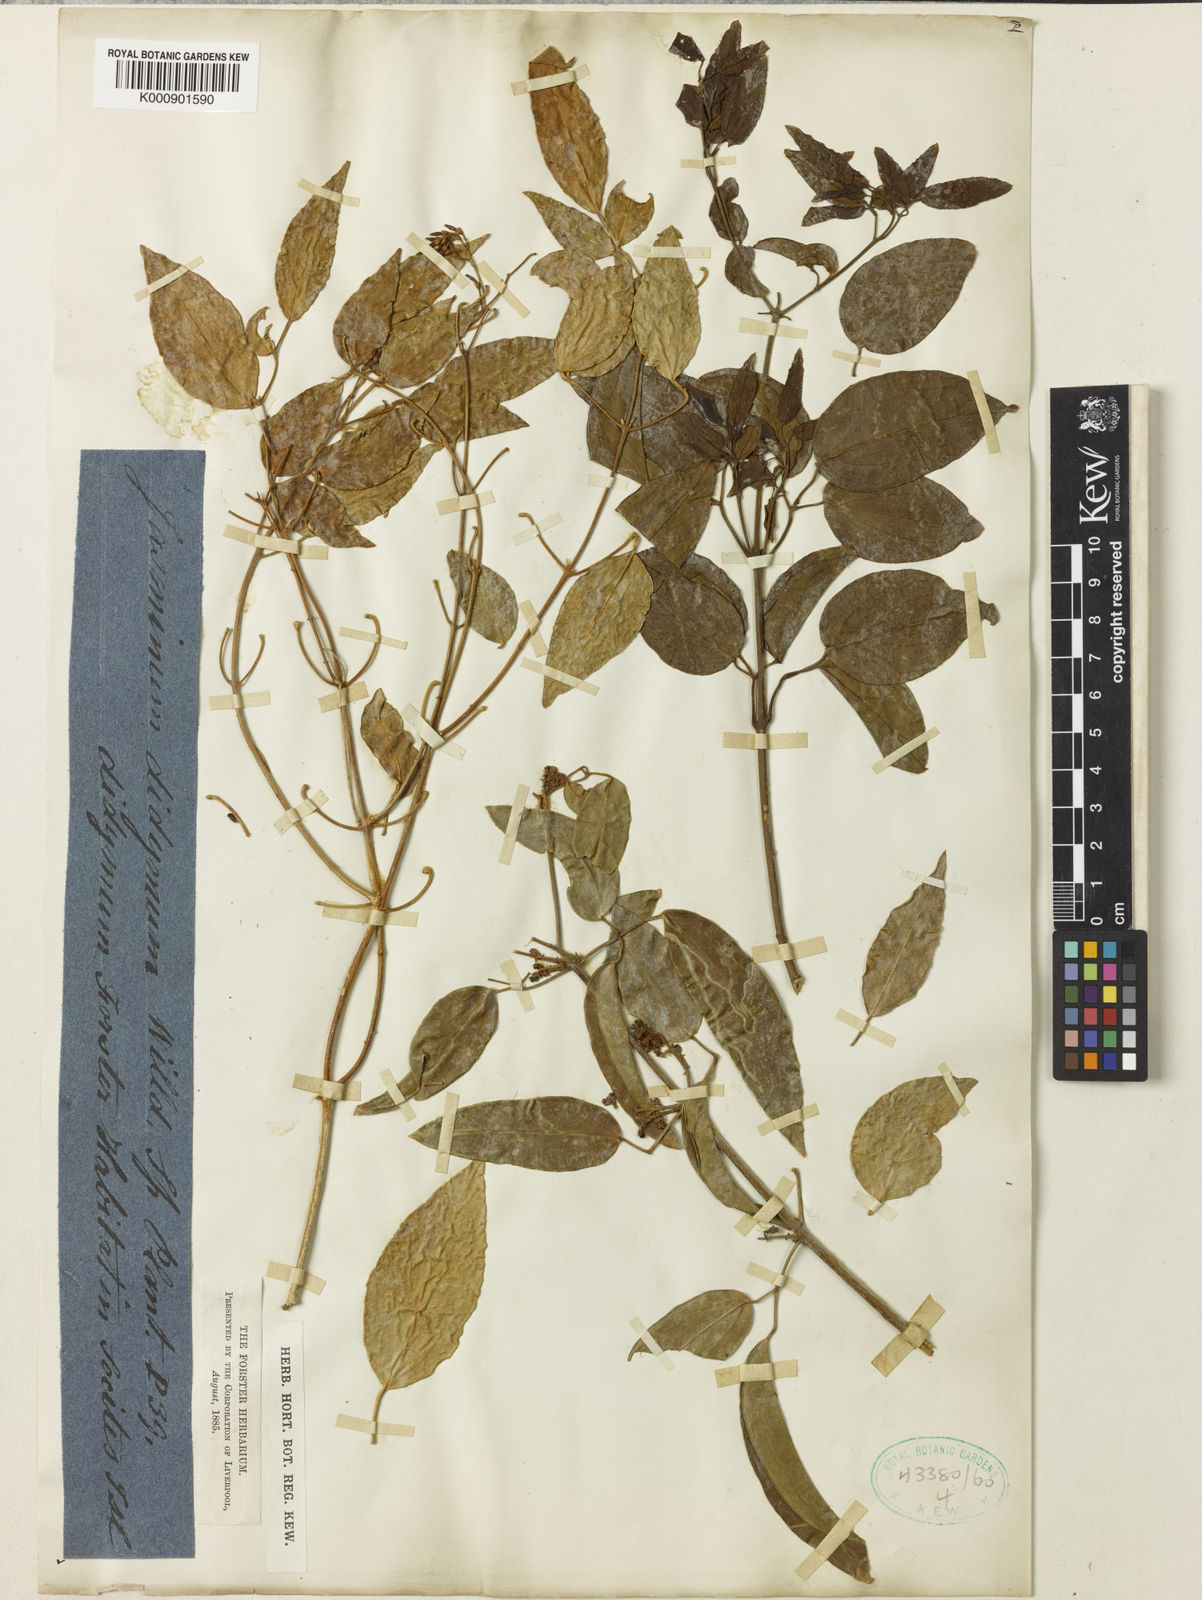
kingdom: Plantae
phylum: Tracheophyta
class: Magnoliopsida
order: Lamiales
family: Oleaceae
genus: Jasminum
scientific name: Jasminum didymum
